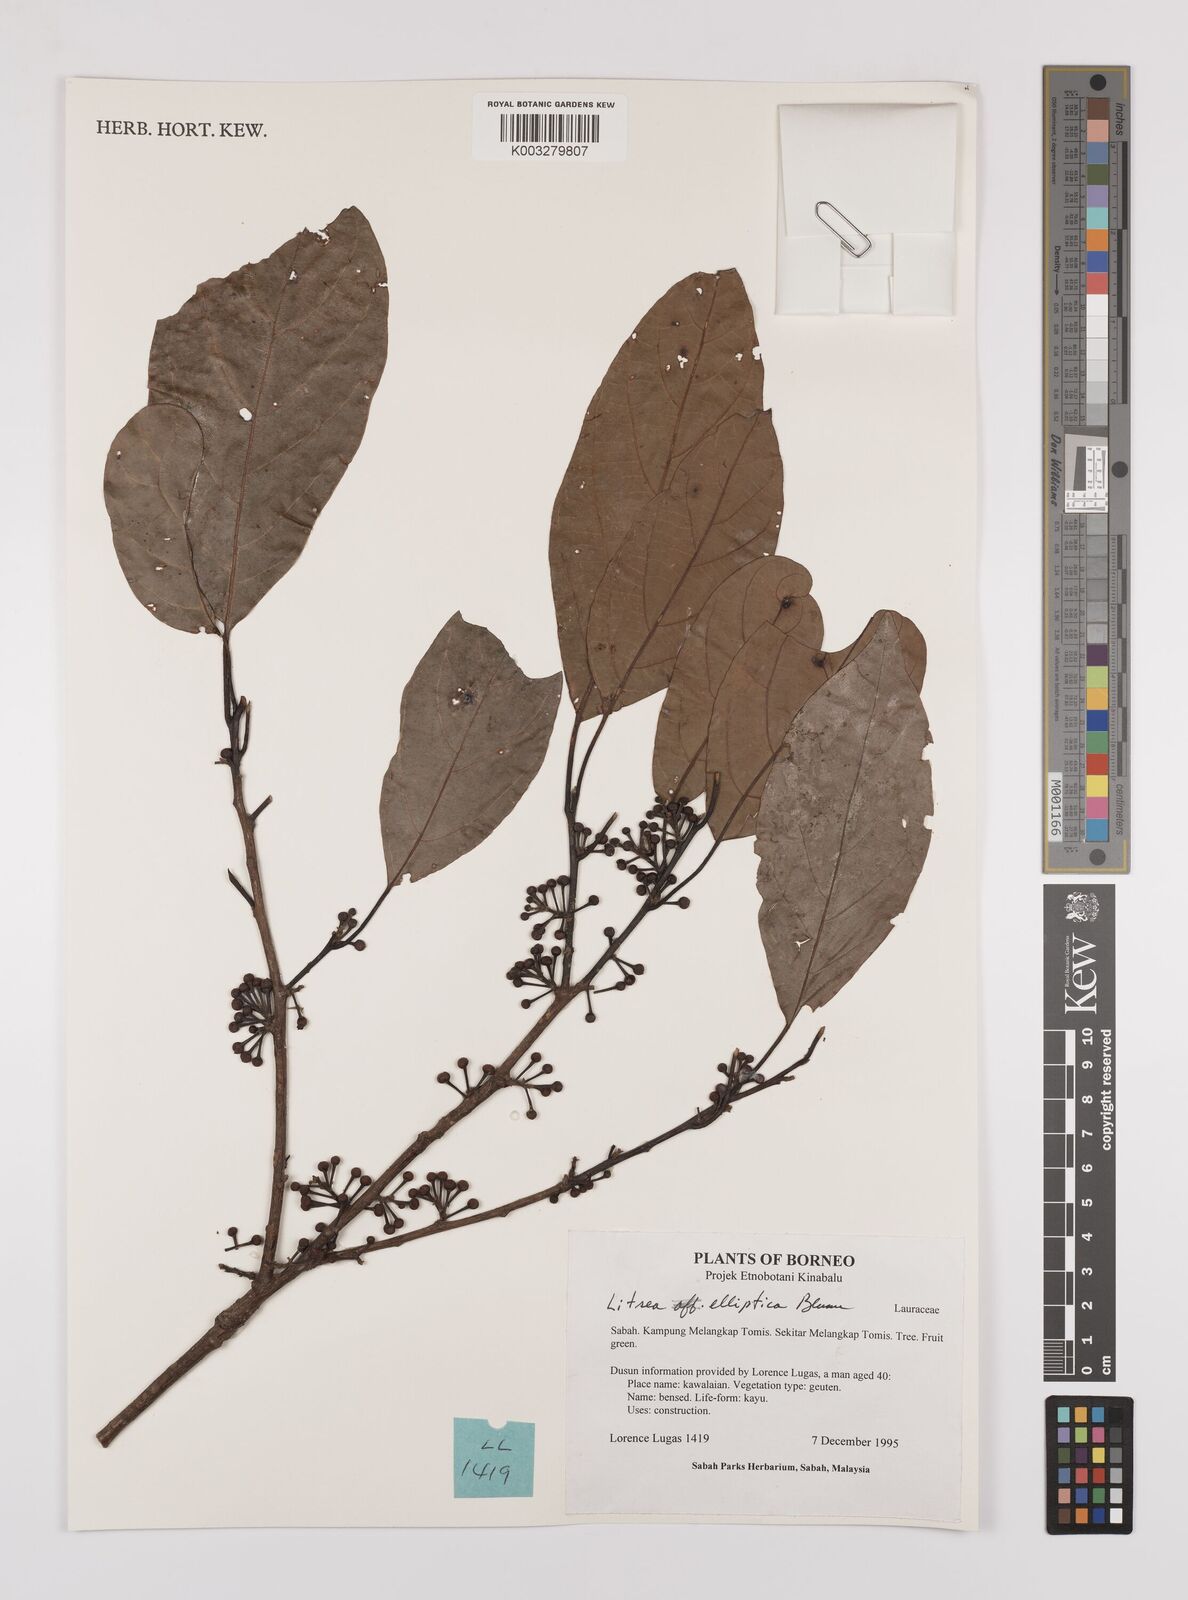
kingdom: Plantae
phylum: Tracheophyta
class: Magnoliopsida
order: Laurales
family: Lauraceae
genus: Litsea
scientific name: Litsea elliptica
